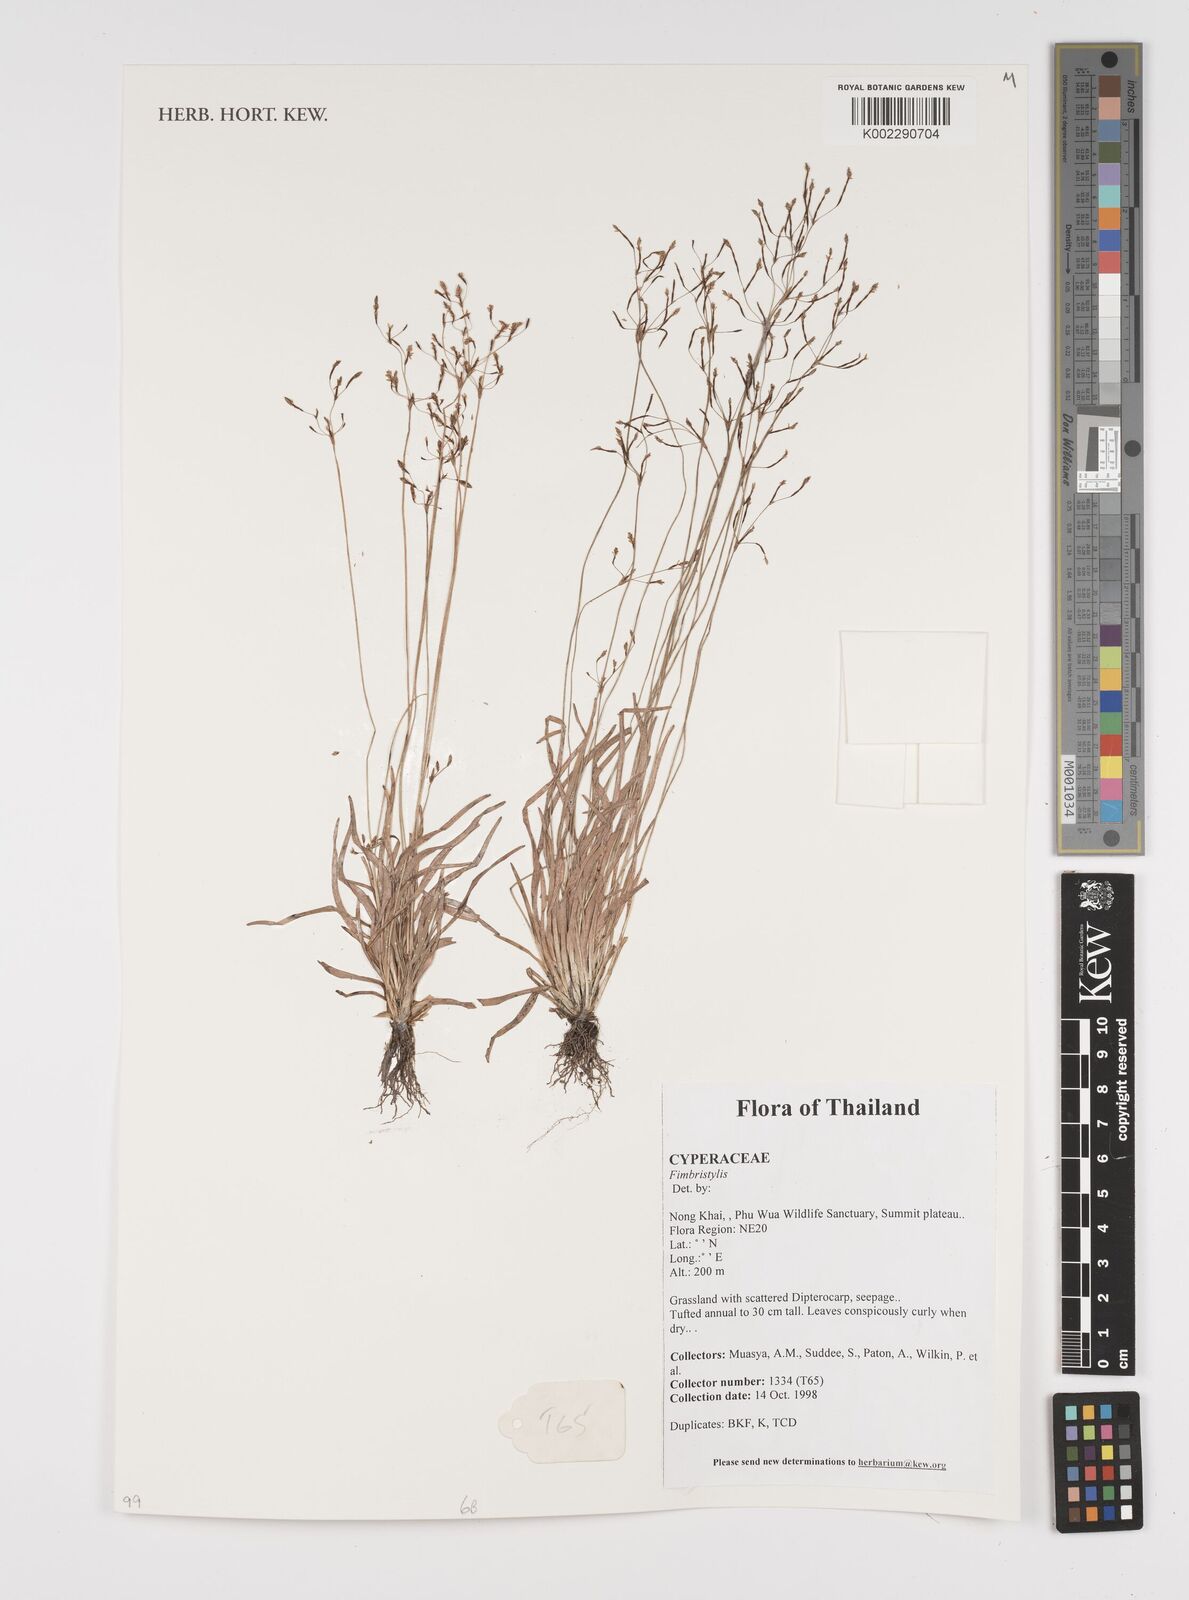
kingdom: Plantae
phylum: Tracheophyta
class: Liliopsida
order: Poales
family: Cyperaceae
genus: Fimbristylis
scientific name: Fimbristylis
